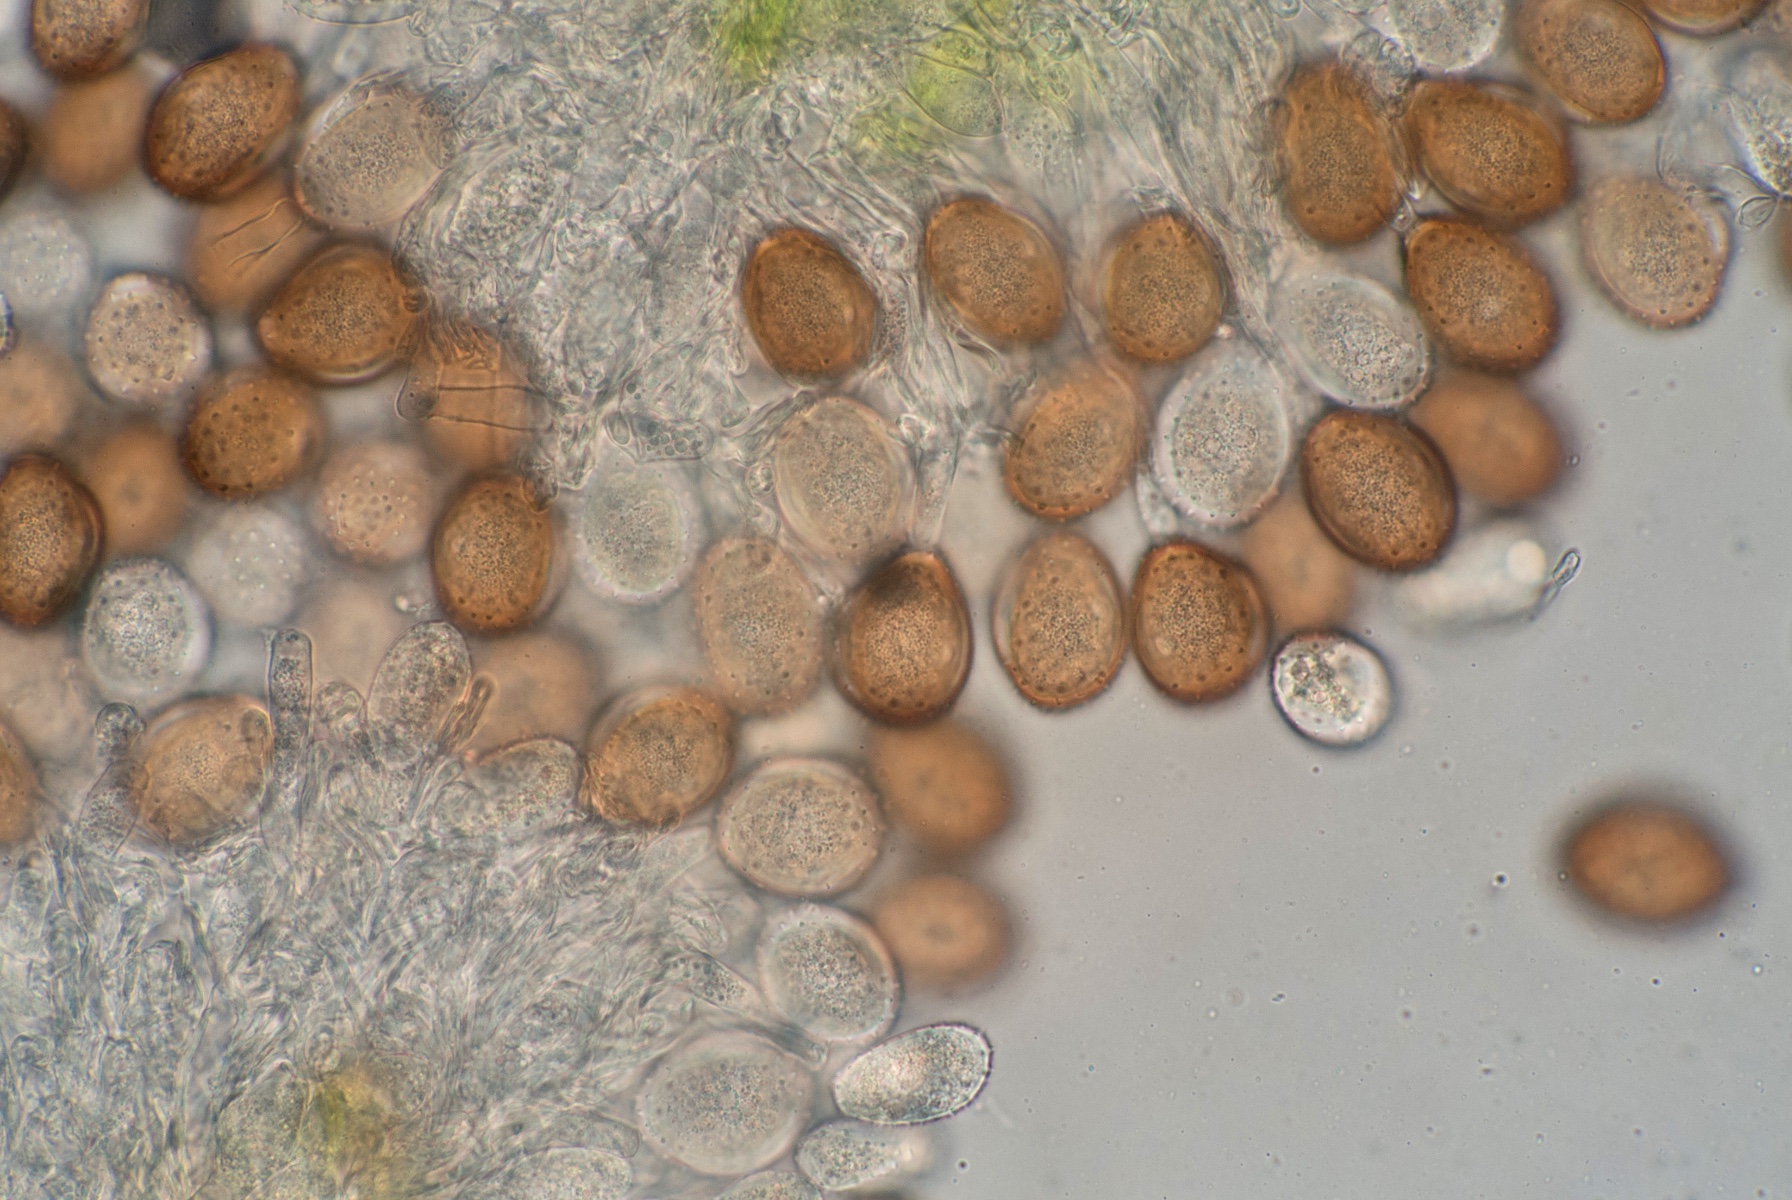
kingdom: Fungi
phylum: Basidiomycota
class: Pucciniomycetes
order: Pucciniales
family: Pucciniaceae
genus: Puccinia
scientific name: Puccinia tanaceti
